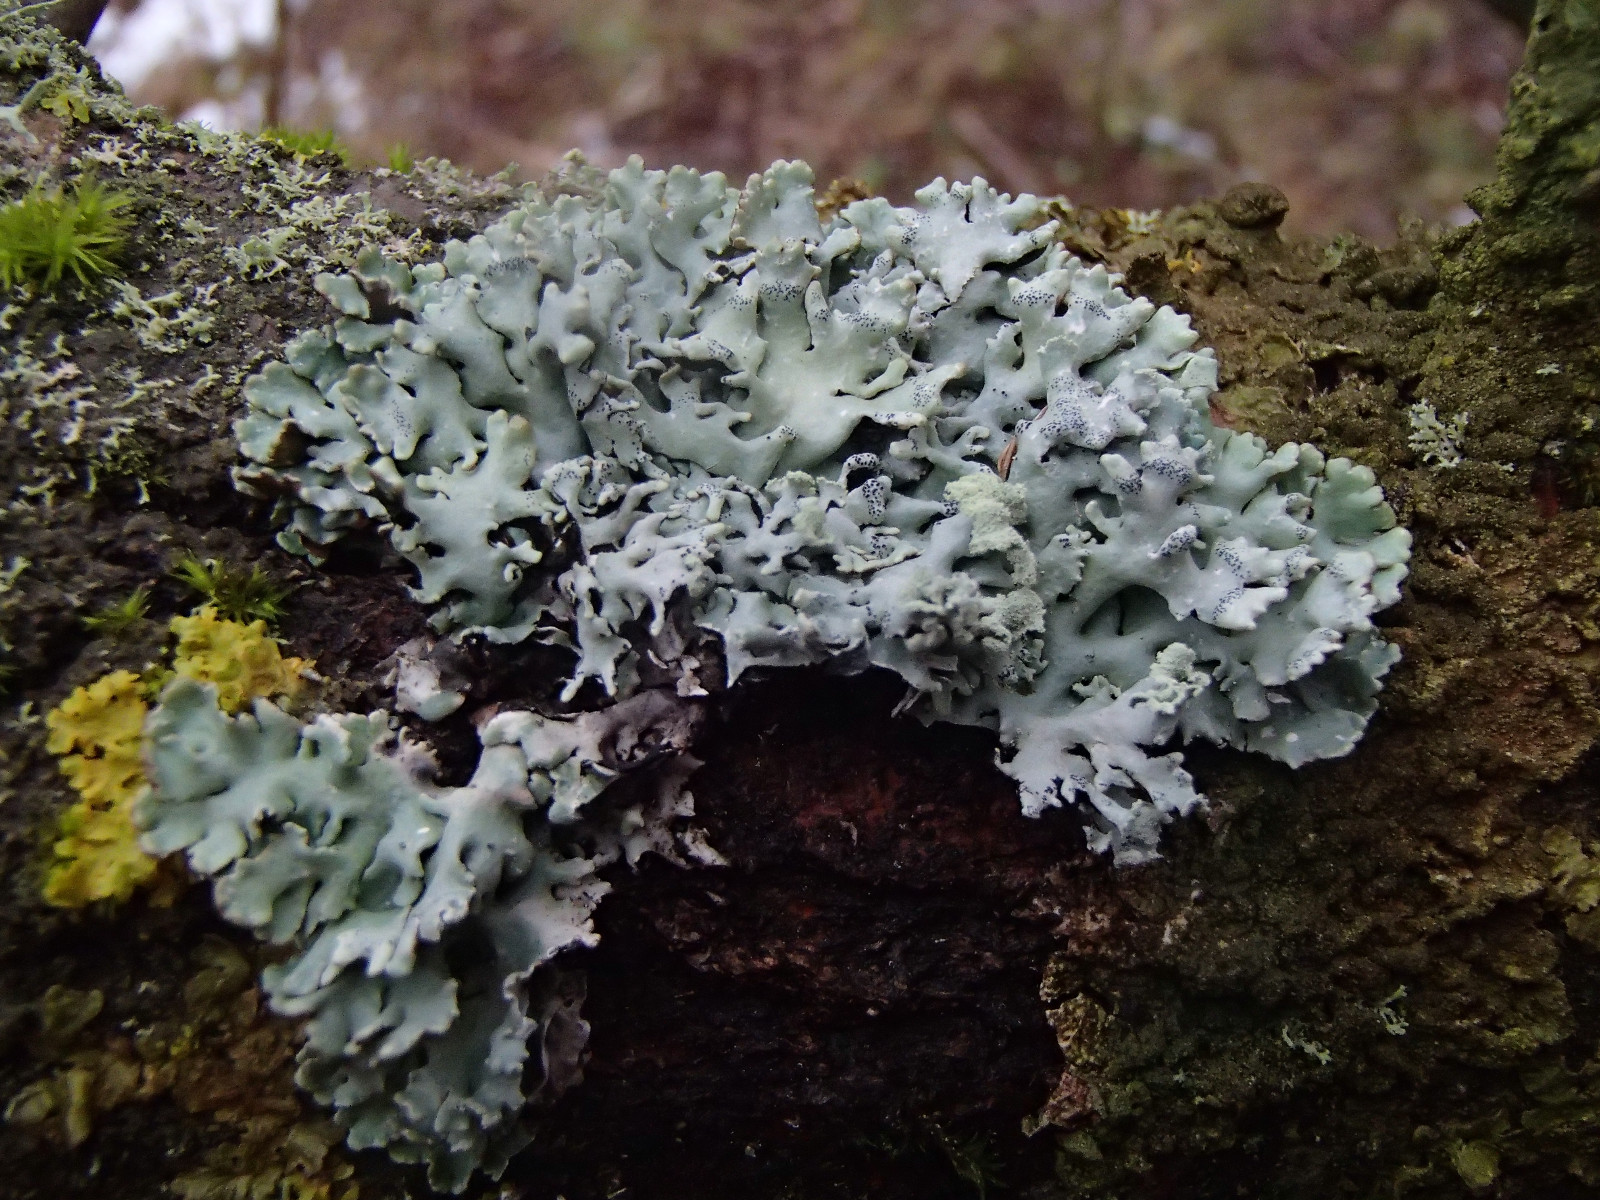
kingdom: Fungi
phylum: Ascomycota
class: Lecanoromycetes
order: Lecanorales
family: Parmeliaceae
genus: Hypogymnia
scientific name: Hypogymnia physodes
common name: almindelig kvistlav
